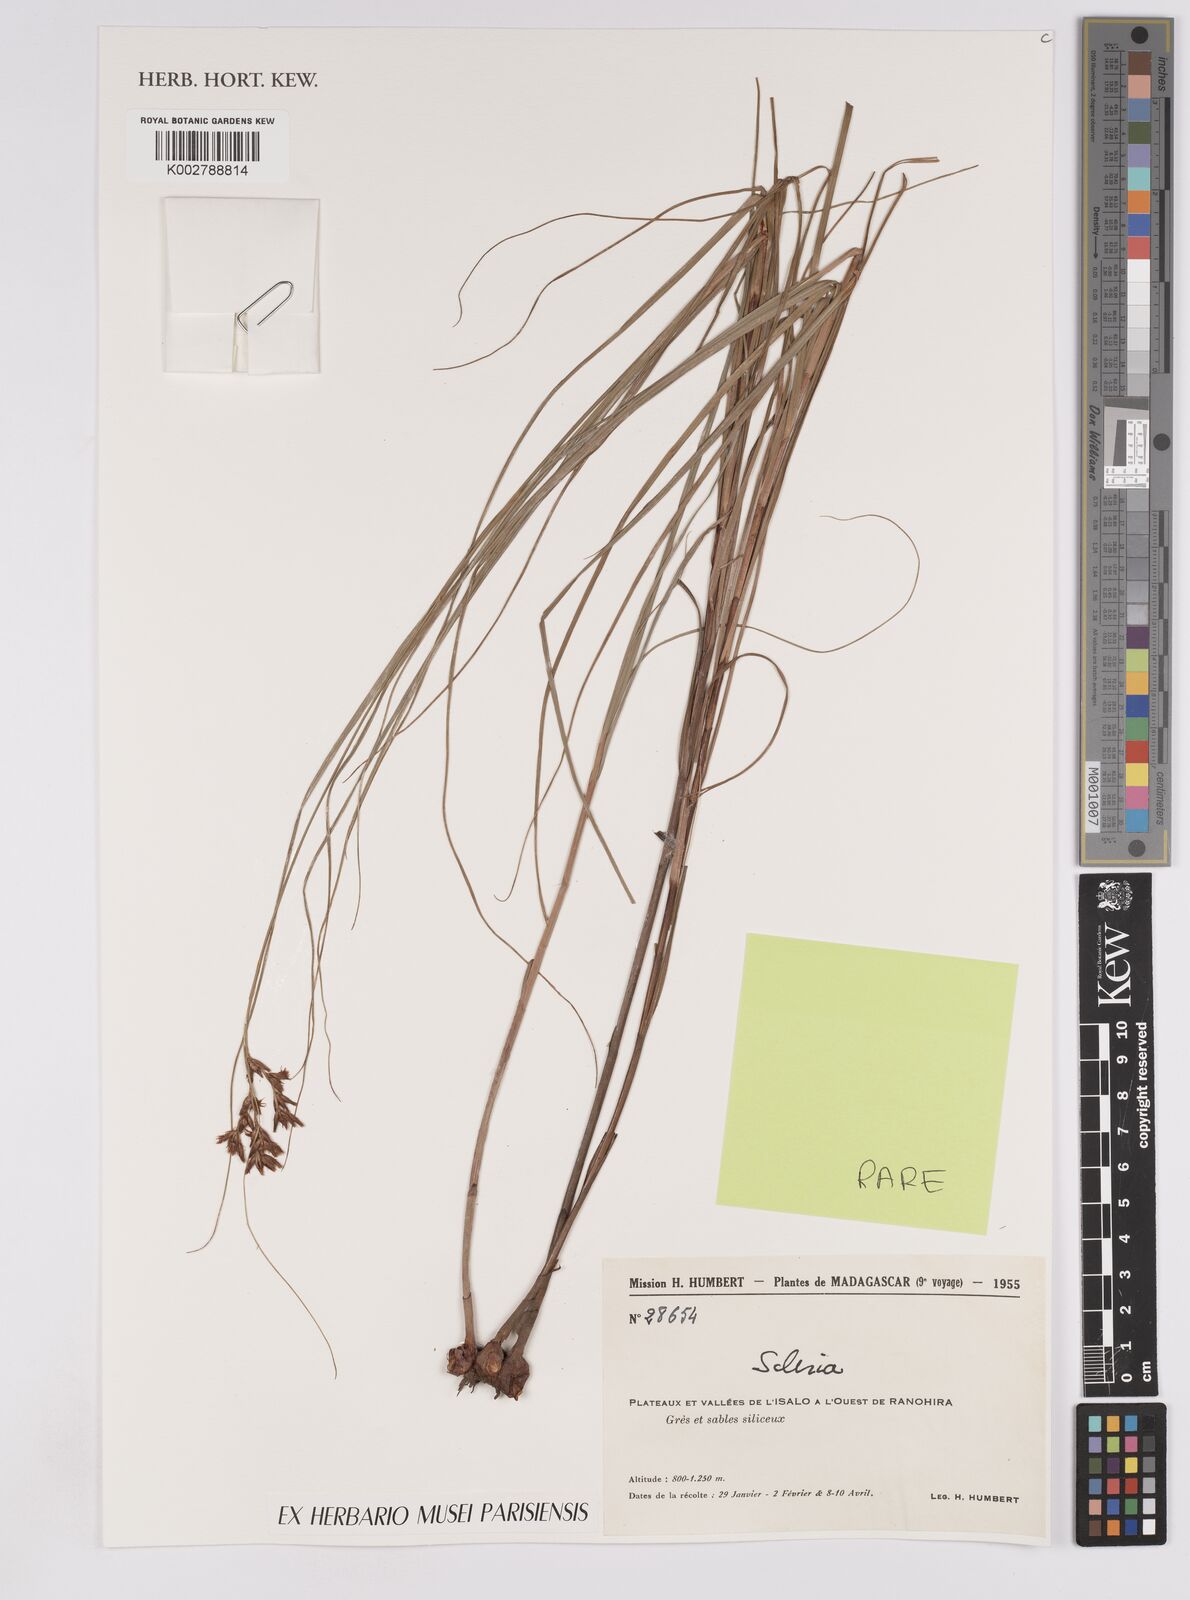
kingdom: Plantae
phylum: Tracheophyta
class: Liliopsida
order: Poales
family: Cyperaceae
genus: Scleria
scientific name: Scleria lagoensis
